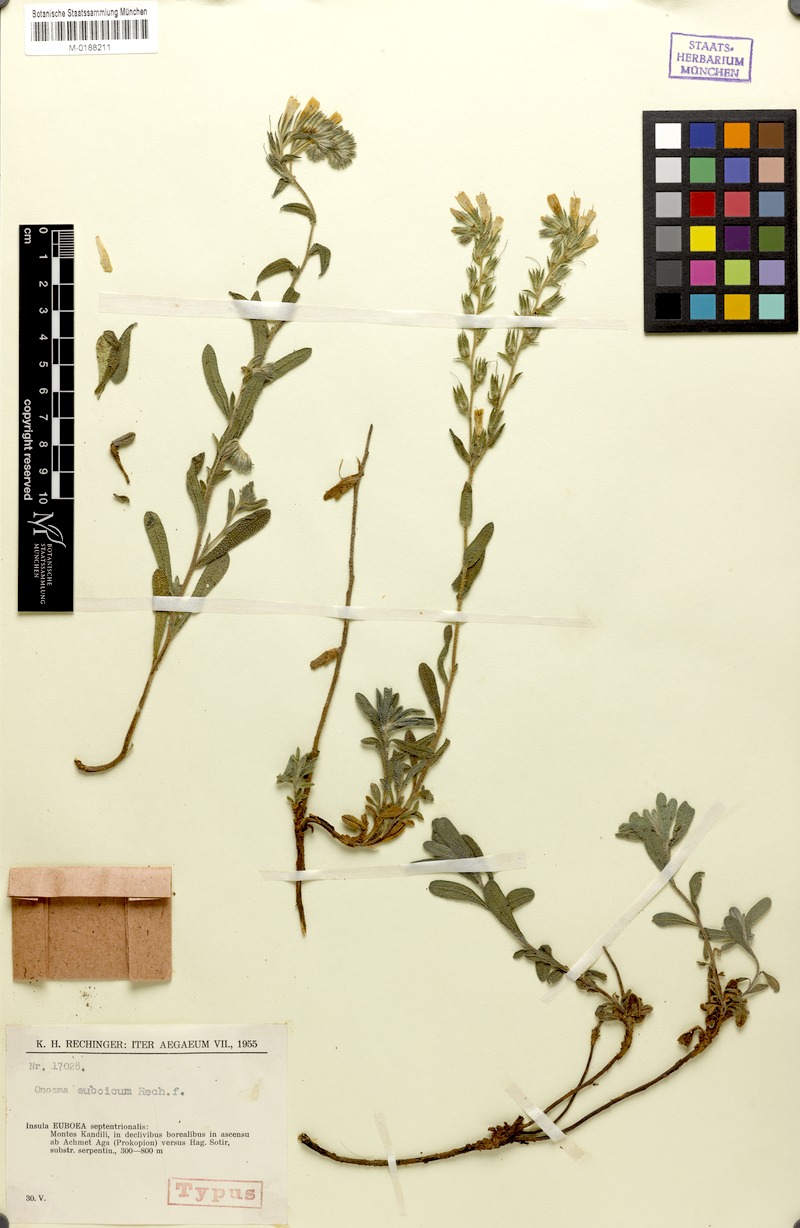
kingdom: Plantae
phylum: Tracheophyta
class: Magnoliopsida
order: Boraginales
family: Boraginaceae
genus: Onosma
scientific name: Onosma euboica
